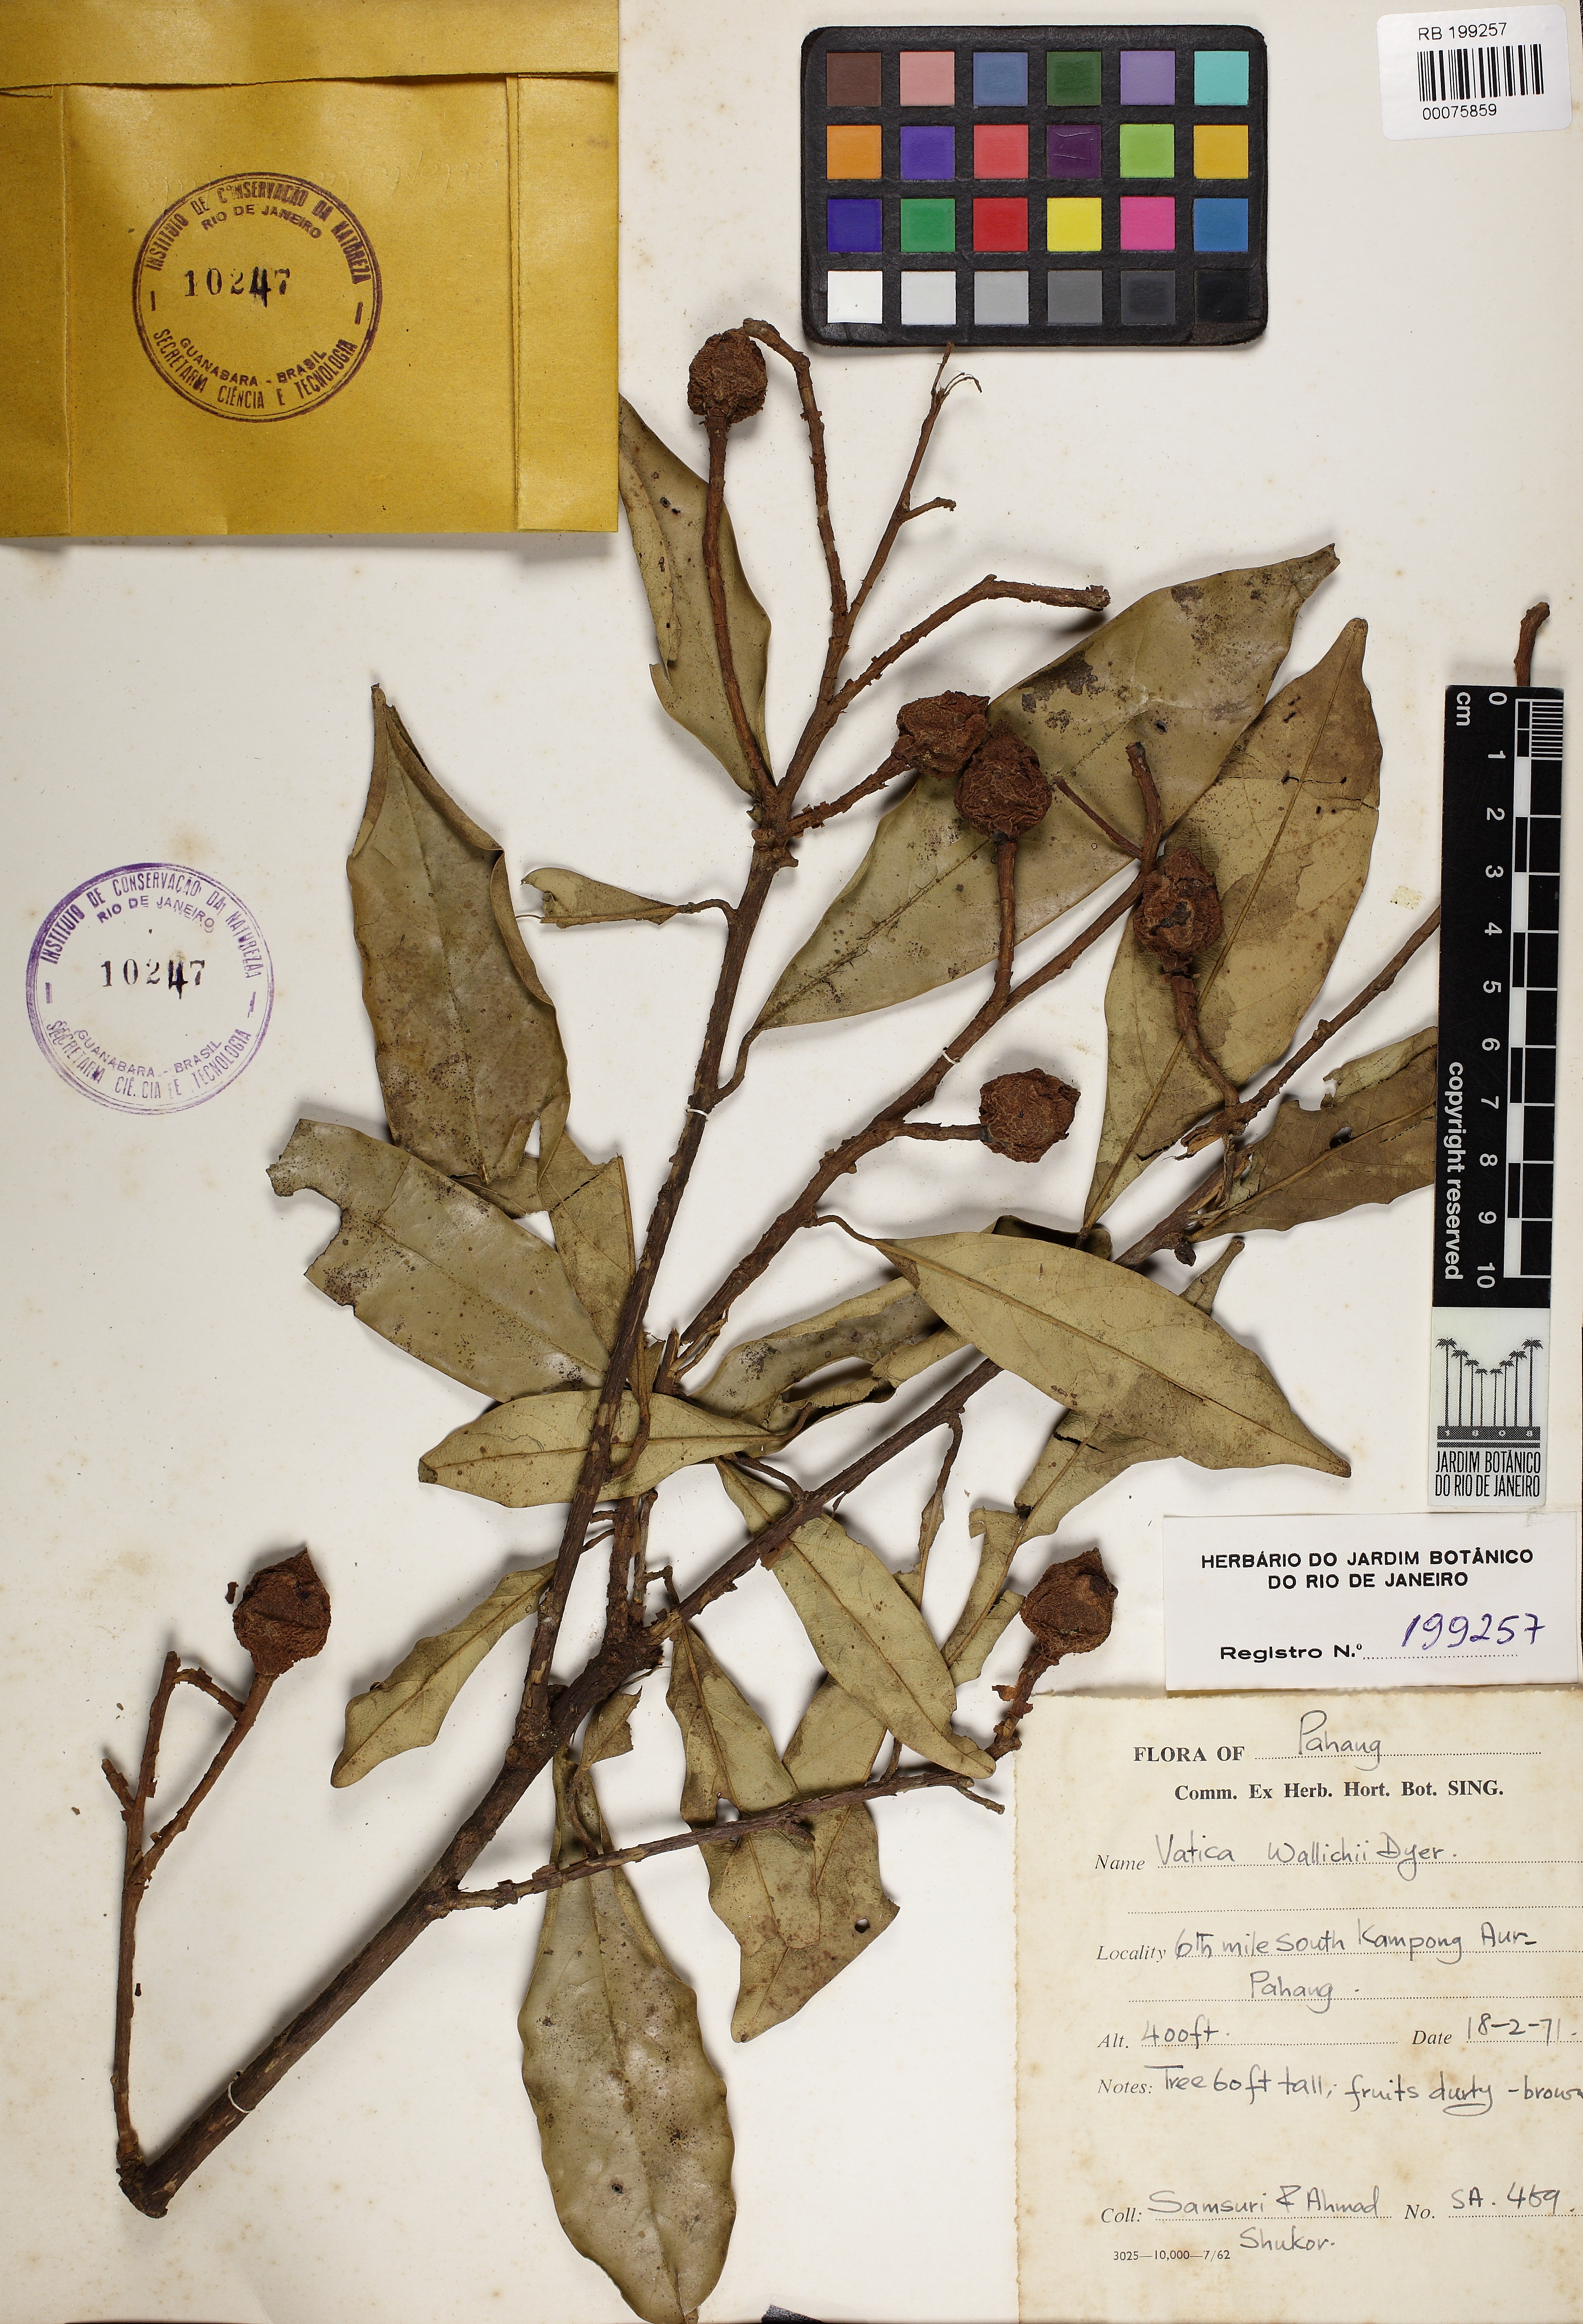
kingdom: Plantae
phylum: Tracheophyta
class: Magnoliopsida
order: Malvales
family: Dipterocarpaceae
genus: Vatica
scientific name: Vatica pauciflora
